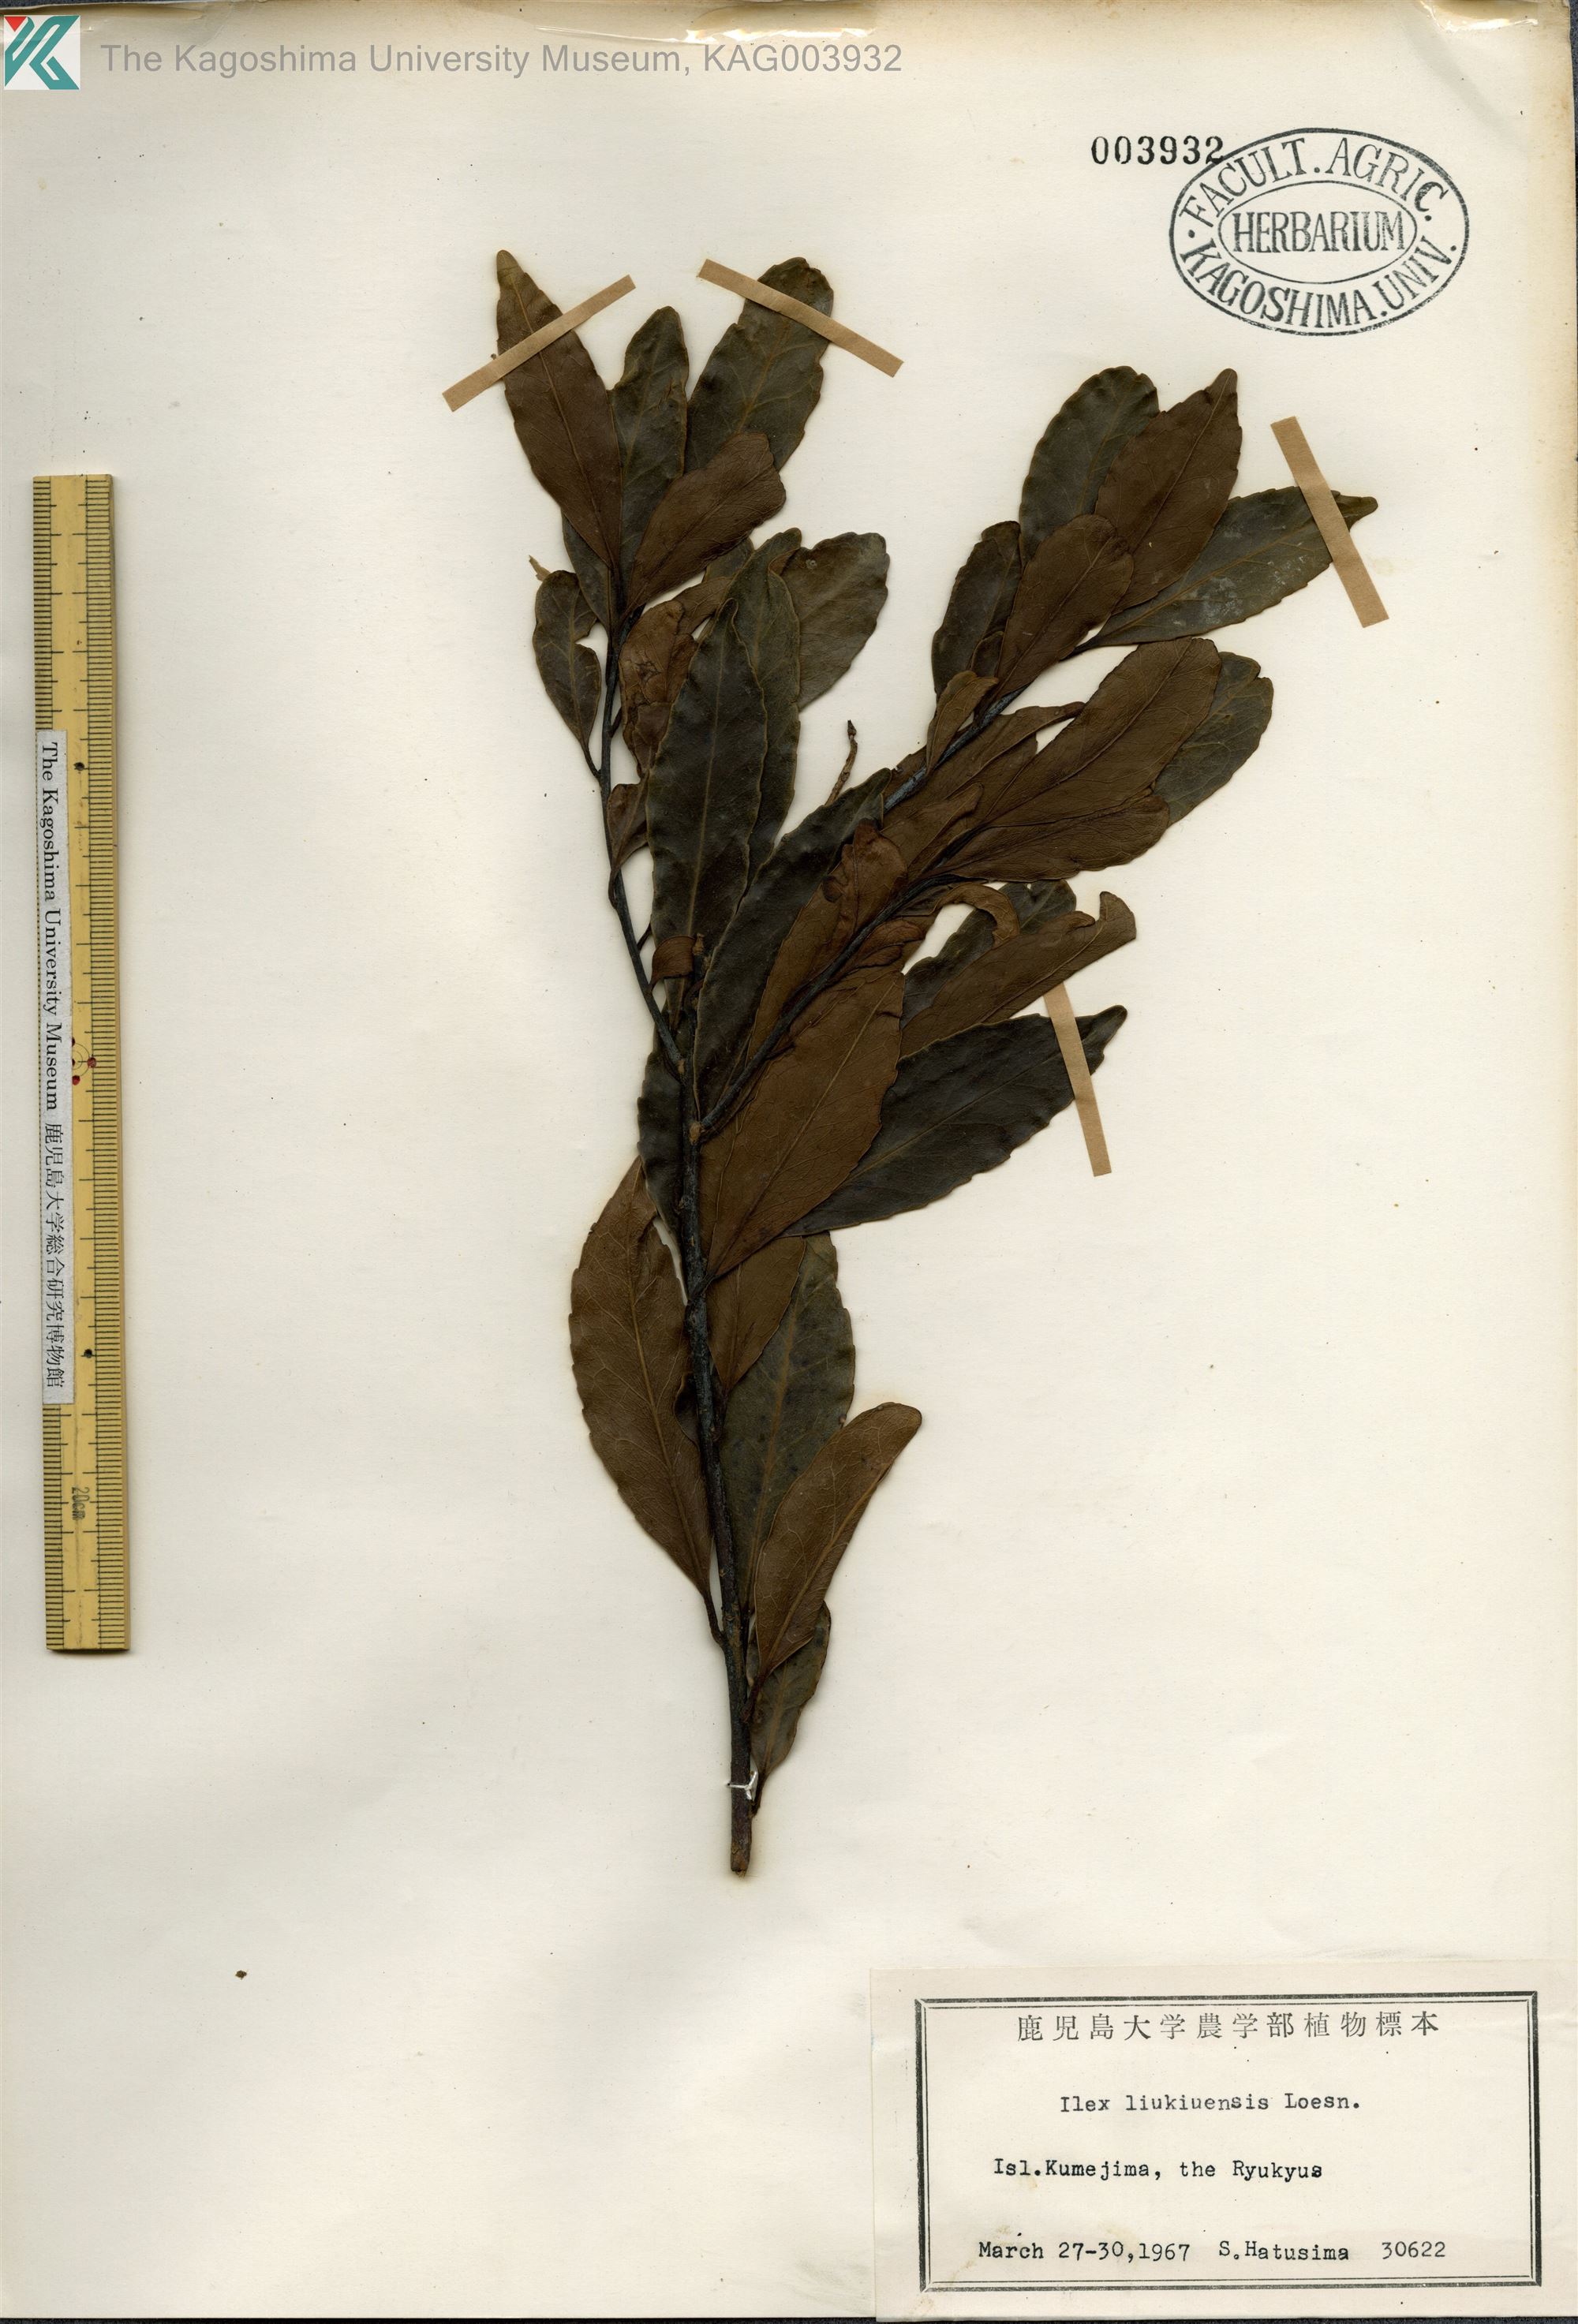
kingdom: Plantae
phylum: Tracheophyta
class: Magnoliopsida
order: Aquifoliales
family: Aquifoliaceae
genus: Ilex
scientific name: Ilex liukiuensis
